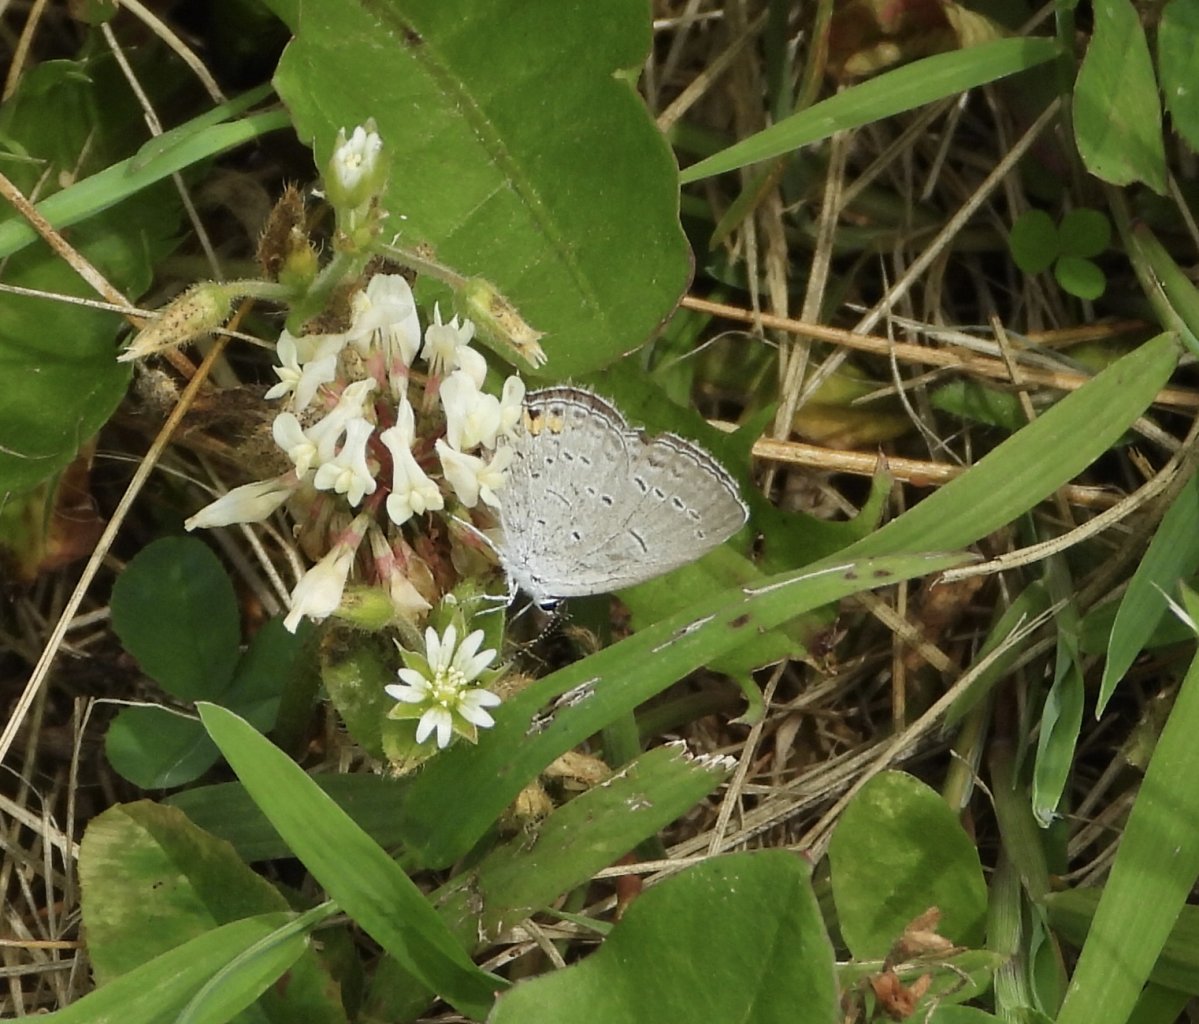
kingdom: Animalia
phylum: Arthropoda
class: Insecta
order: Lepidoptera
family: Lycaenidae
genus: Elkalyce
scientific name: Elkalyce comyntas
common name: Eastern Tailed-Blue
